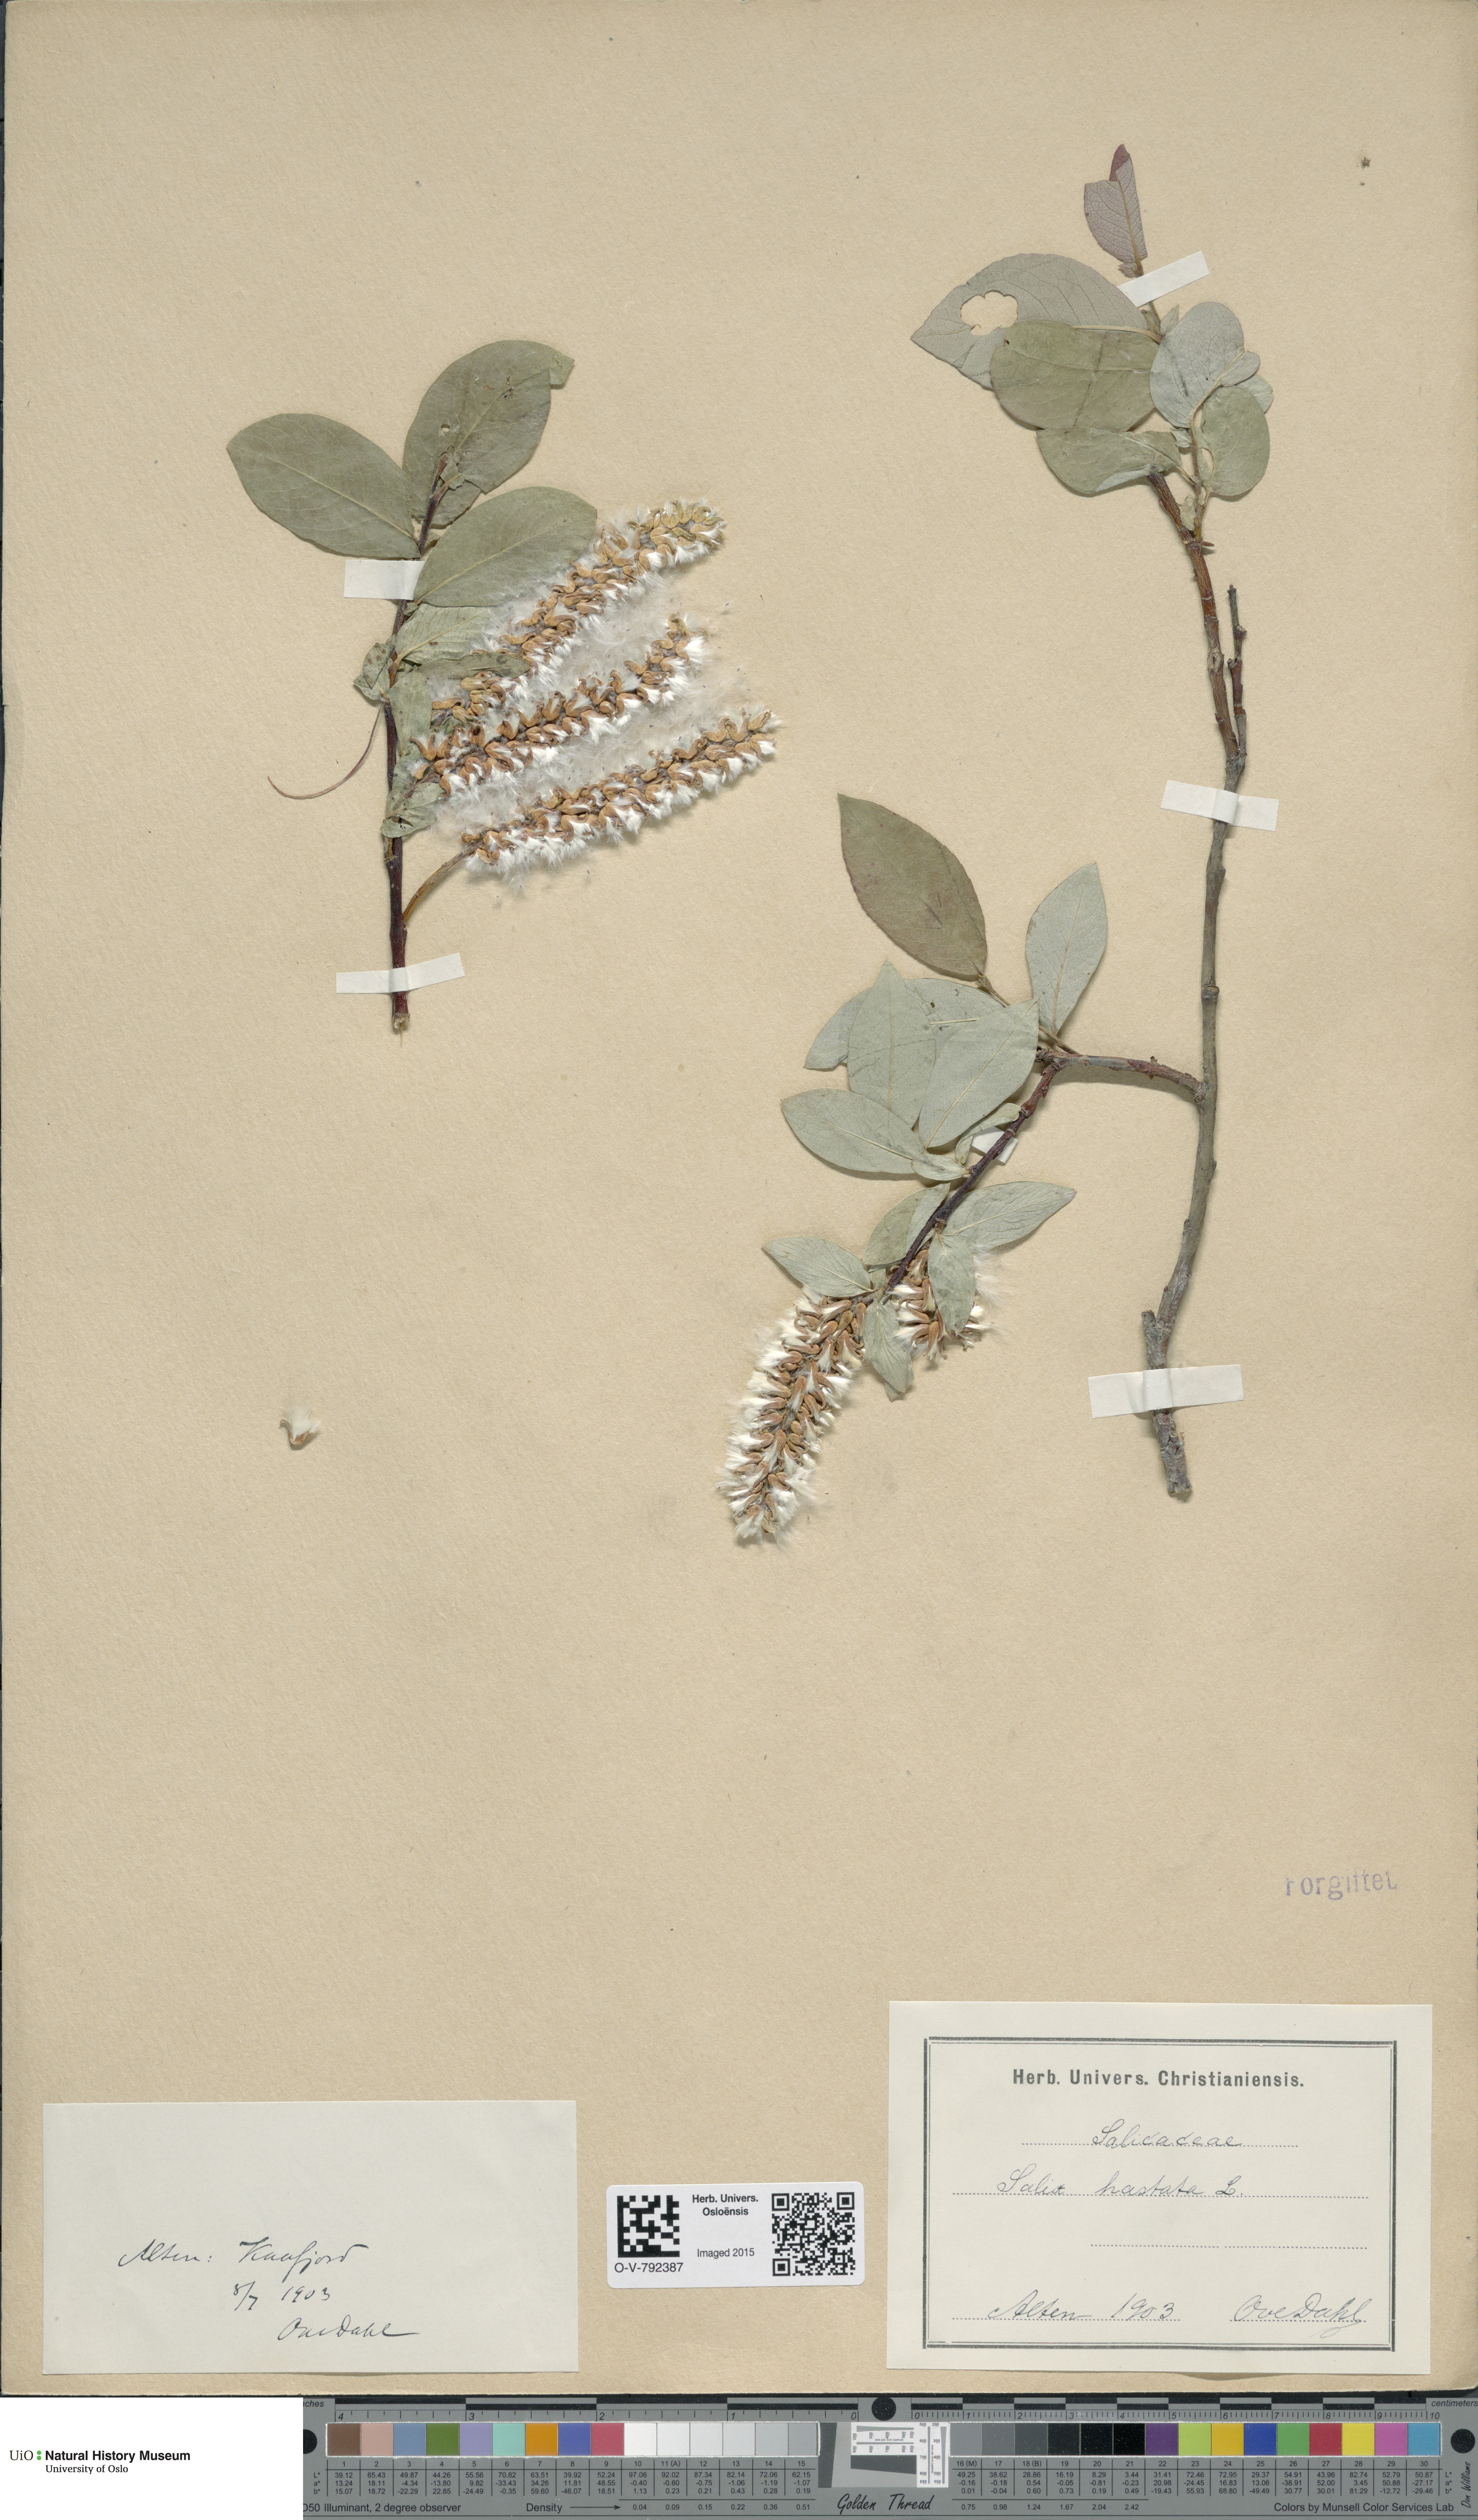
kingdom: Plantae
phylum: Tracheophyta
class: Magnoliopsida
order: Malpighiales
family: Salicaceae
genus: Salix
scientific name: Salix hastata
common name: Halberd willow
